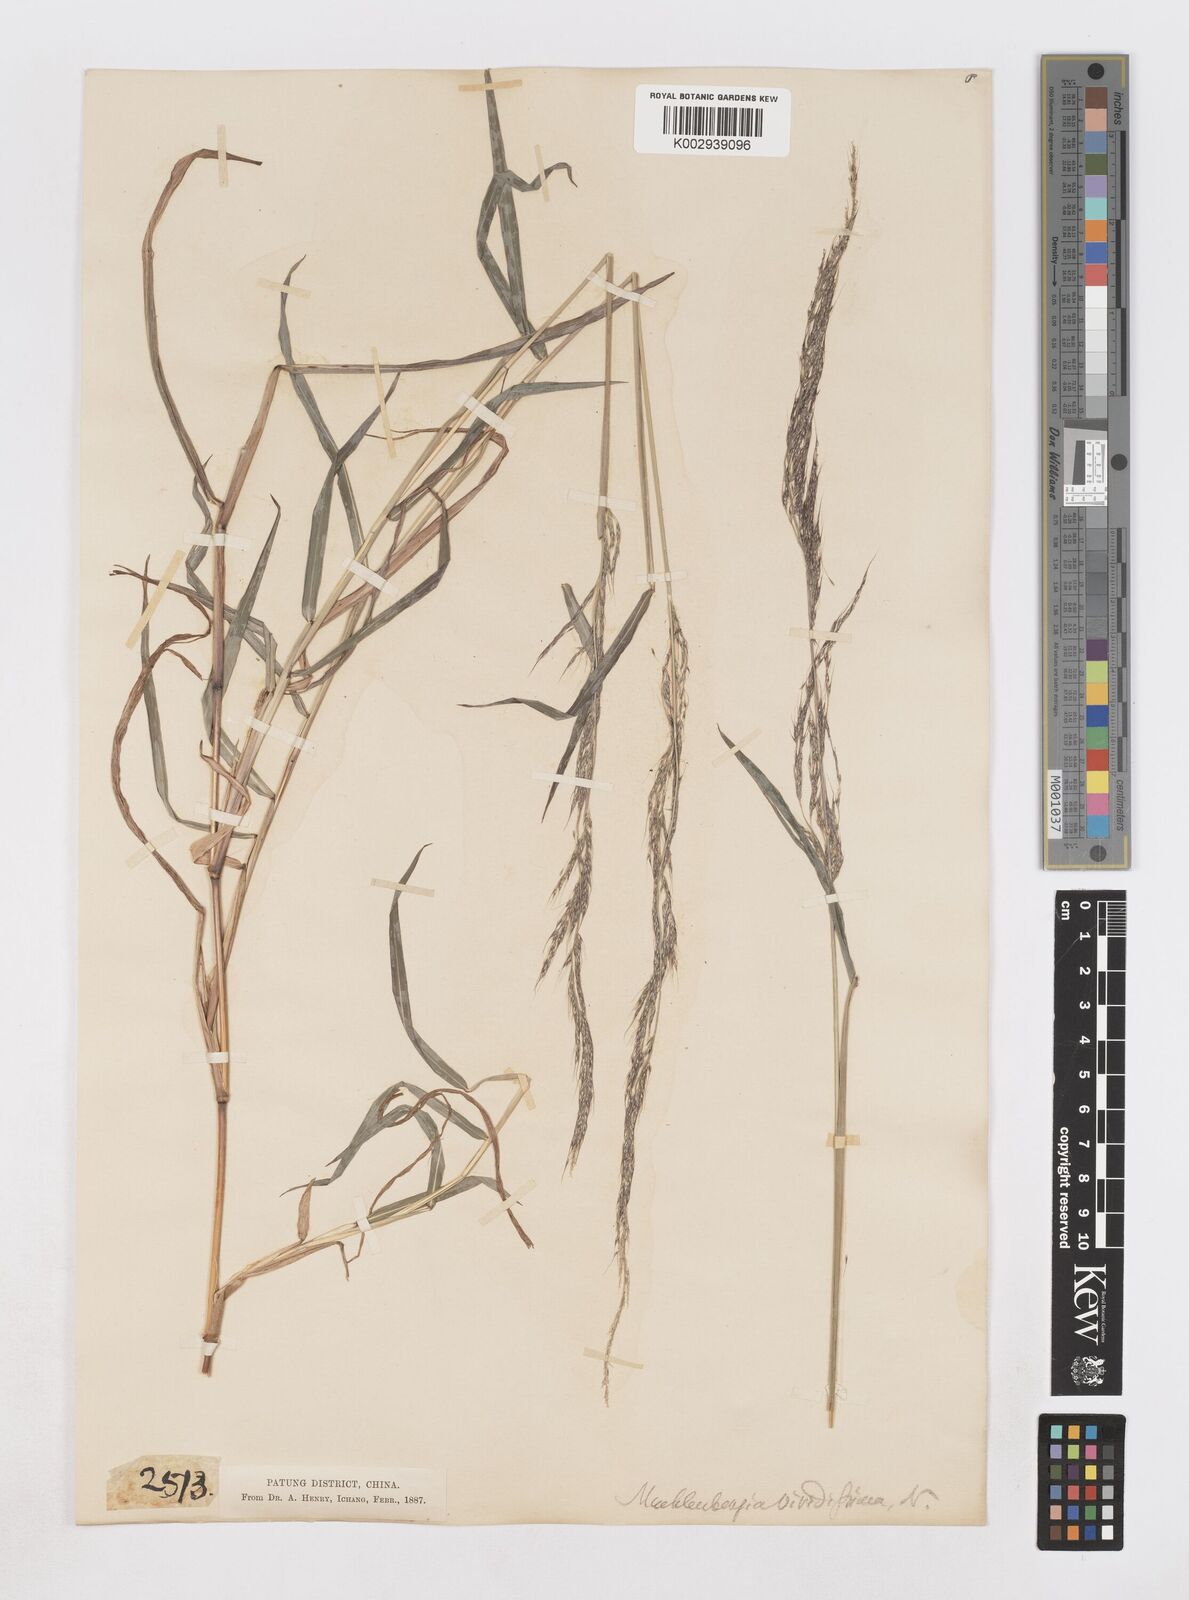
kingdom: Plantae
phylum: Tracheophyta
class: Liliopsida
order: Poales
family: Poaceae
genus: Muhlenbergia
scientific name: Muhlenbergia huegelii
